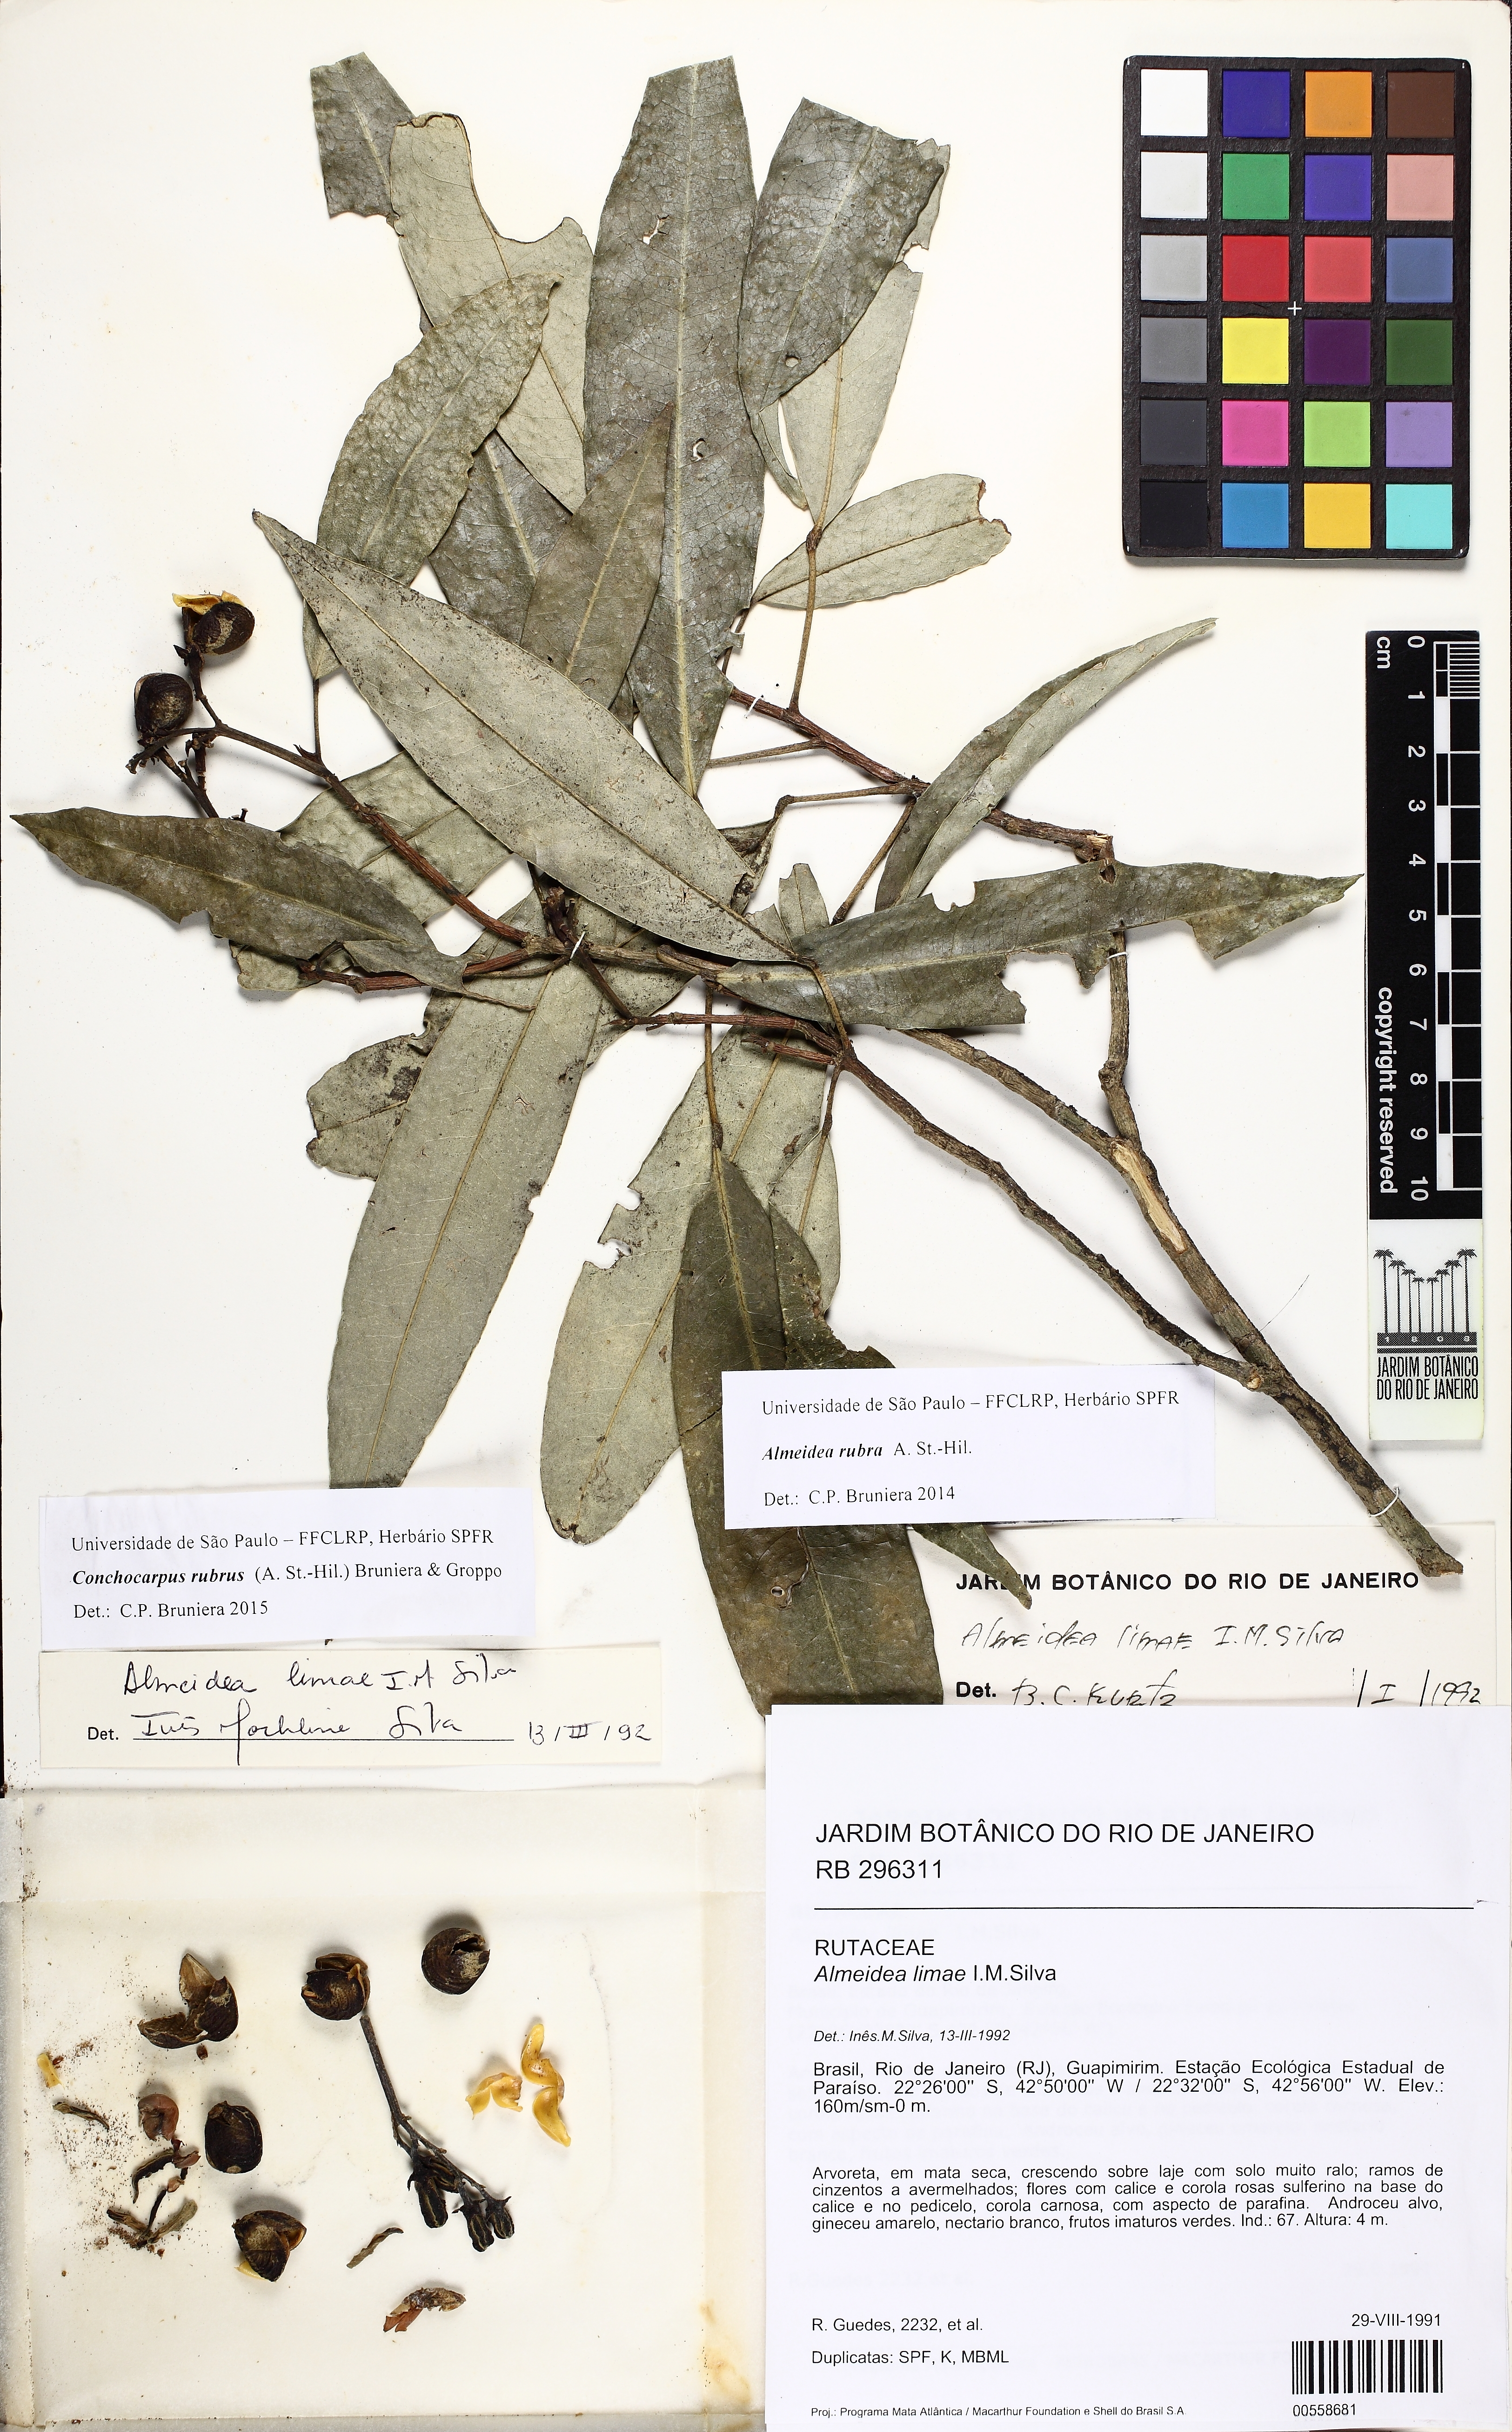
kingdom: Plantae
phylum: Tracheophyta
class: Magnoliopsida
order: Sapindales
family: Rutaceae
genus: Conchocarpus
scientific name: Conchocarpus ruber
